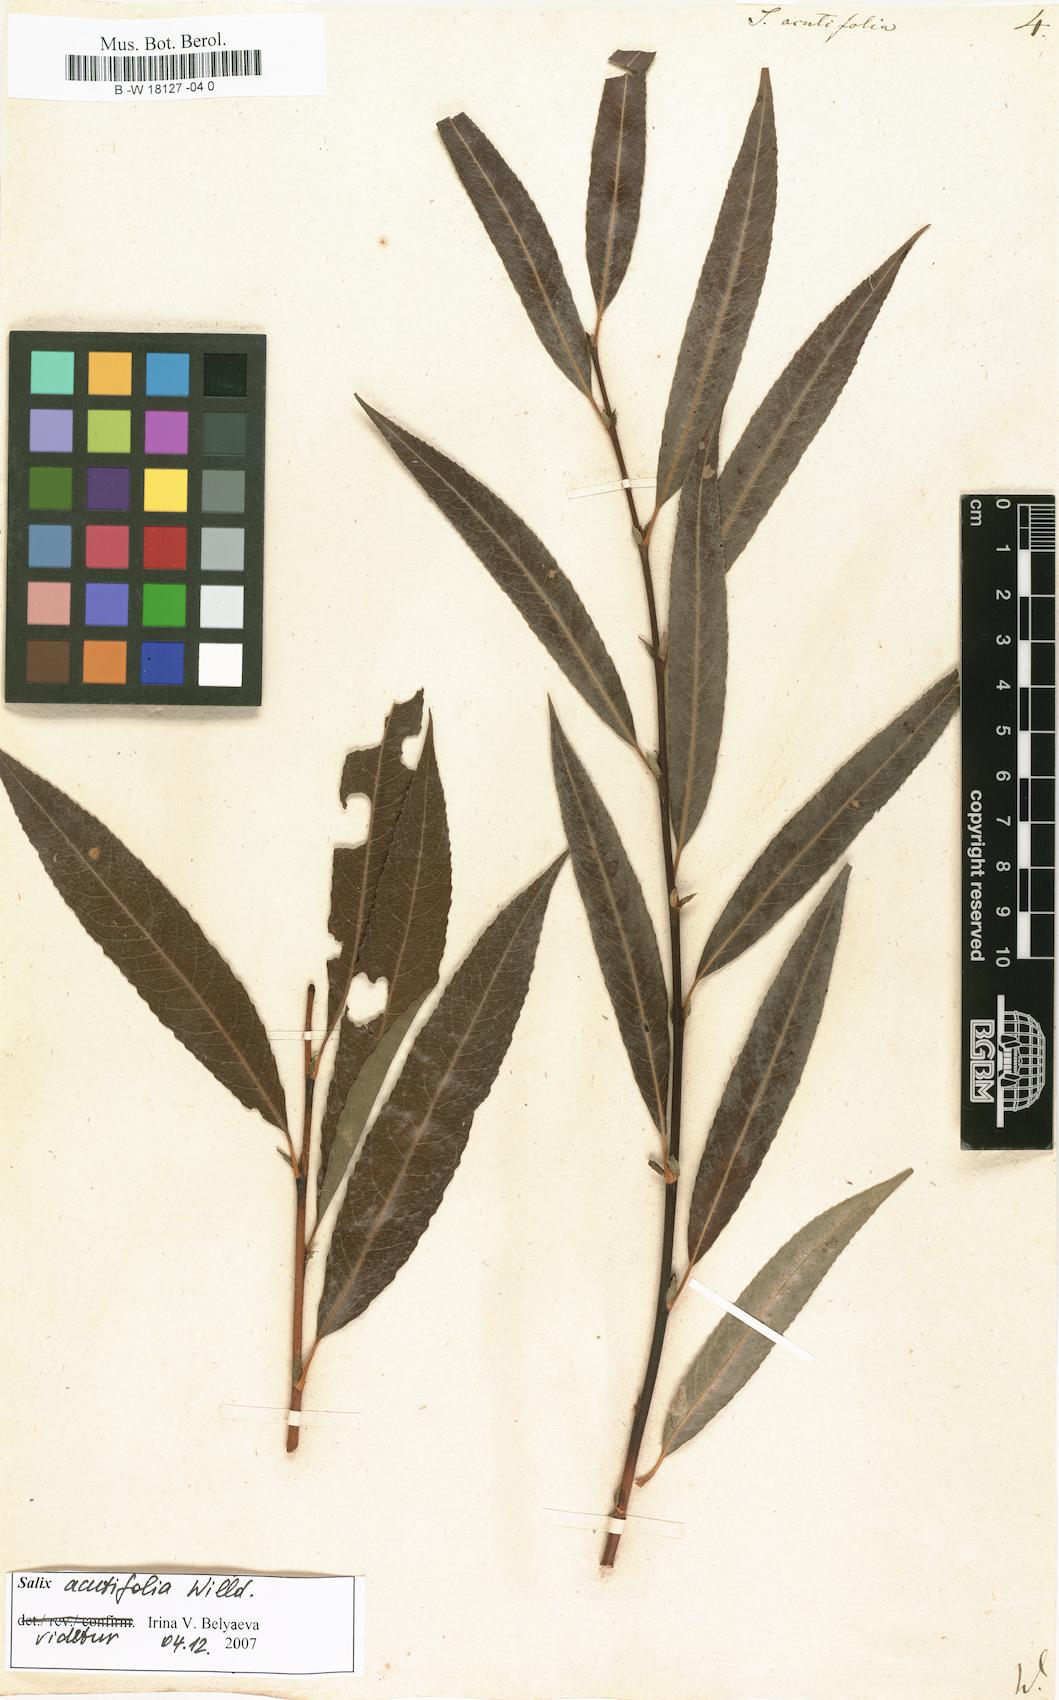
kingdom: Plantae
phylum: Tracheophyta
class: Magnoliopsida
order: Malpighiales
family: Salicaceae
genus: Salix
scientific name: Salix acutifolia
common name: Siberian violet-willow
